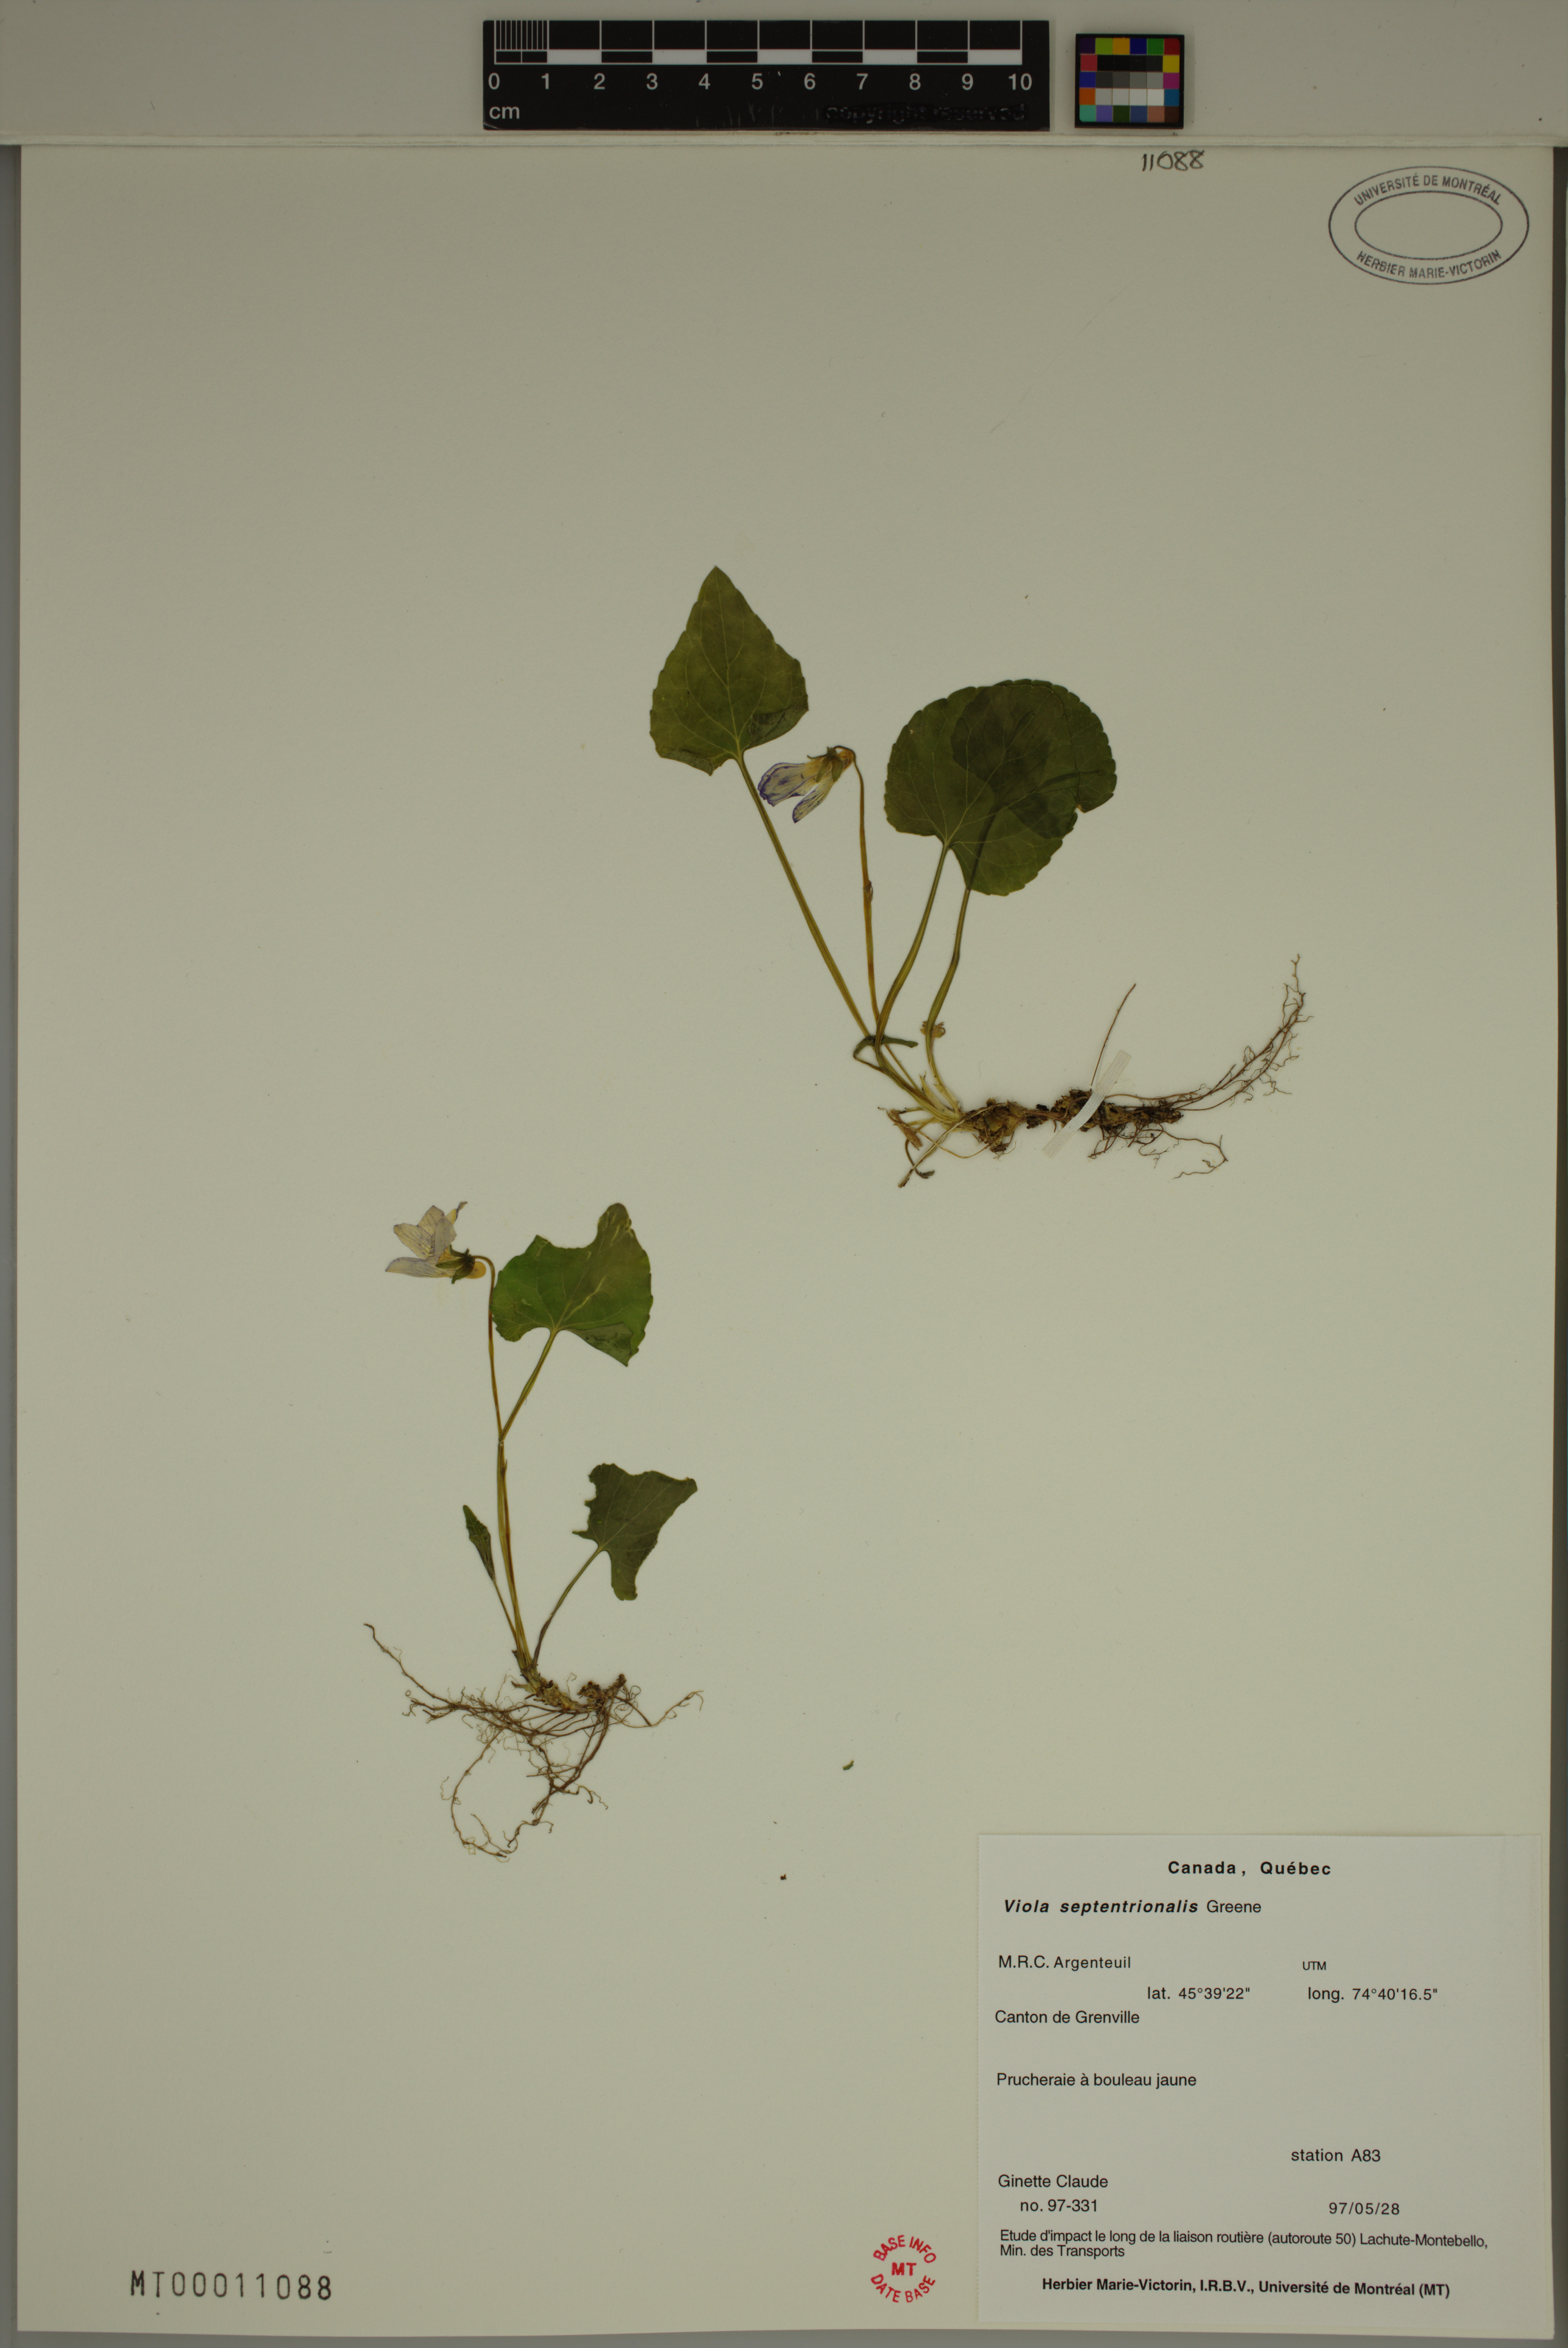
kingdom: Plantae
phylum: Tracheophyta
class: Magnoliopsida
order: Malpighiales
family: Violaceae
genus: Viola
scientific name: Viola sororia
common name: Dooryard violet
